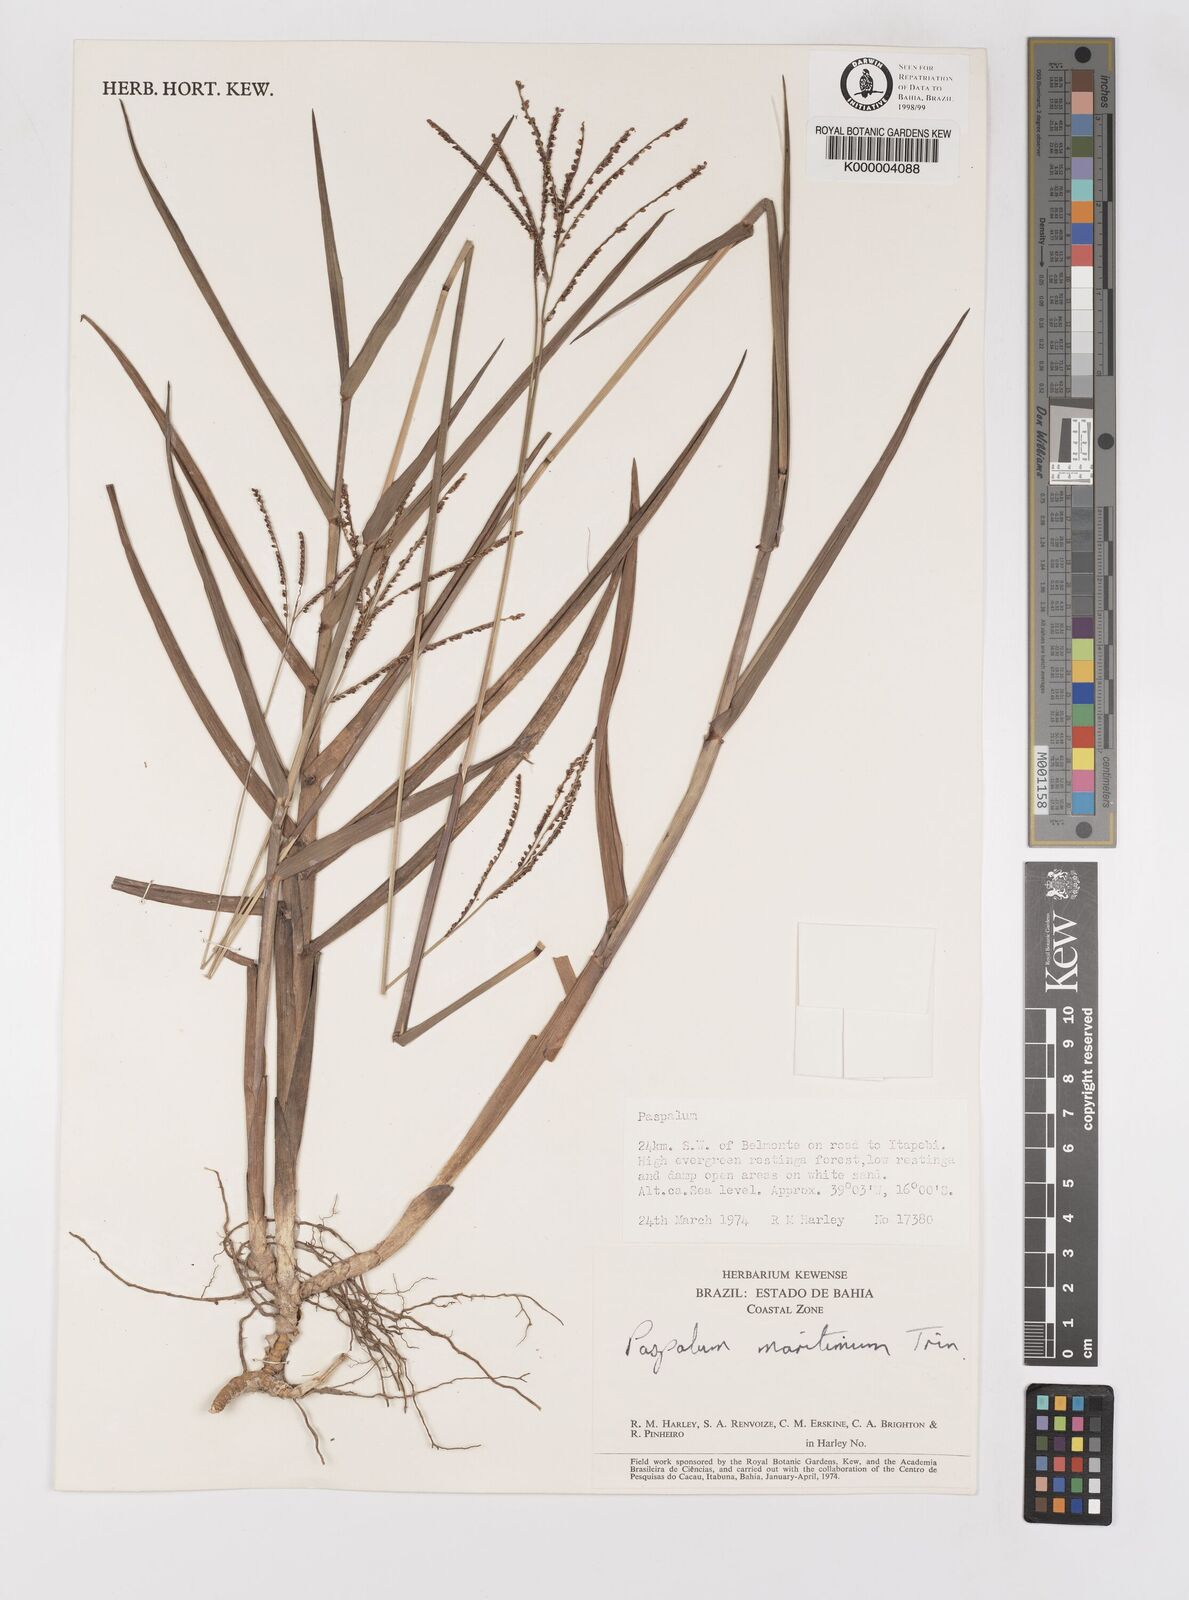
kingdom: Plantae
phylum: Tracheophyta
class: Liliopsida
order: Poales
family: Poaceae
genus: Paspalum
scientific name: Paspalum maritimum
